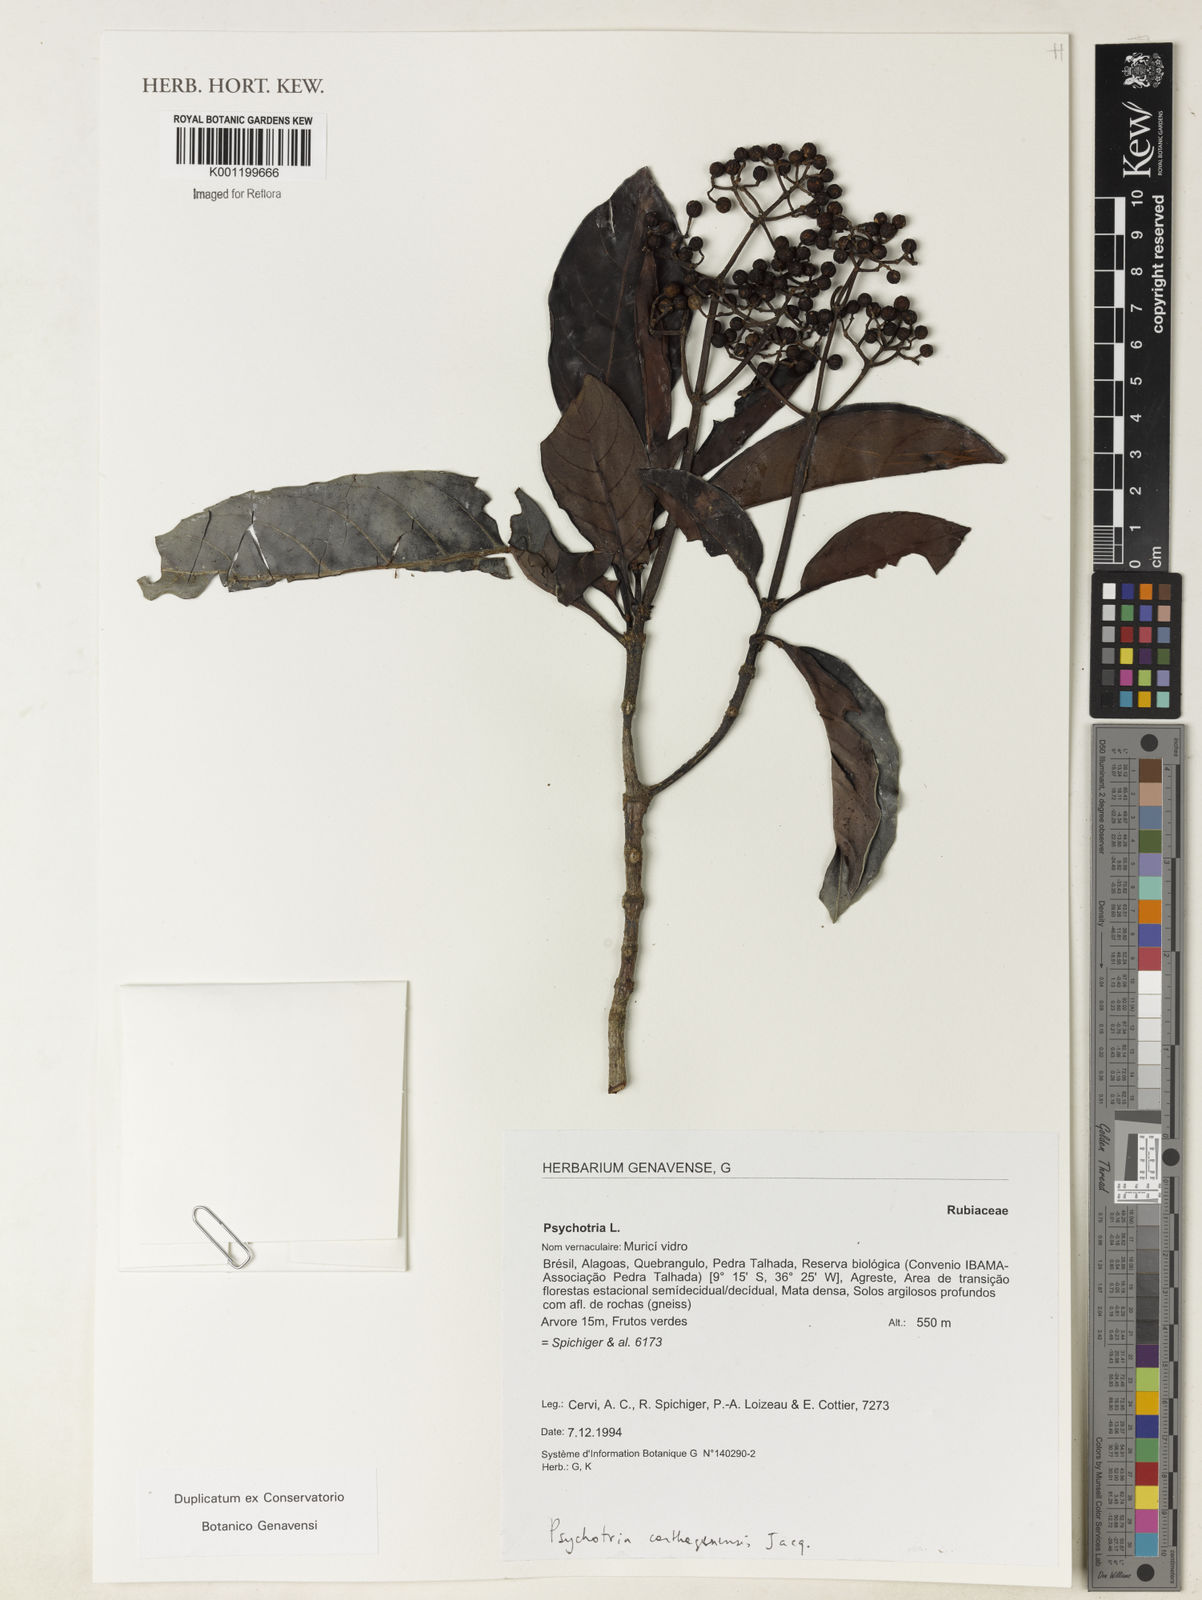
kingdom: Plantae
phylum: Tracheophyta
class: Magnoliopsida
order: Gentianales
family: Rubiaceae
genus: Psychotria
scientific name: Psychotria carthagenensis
